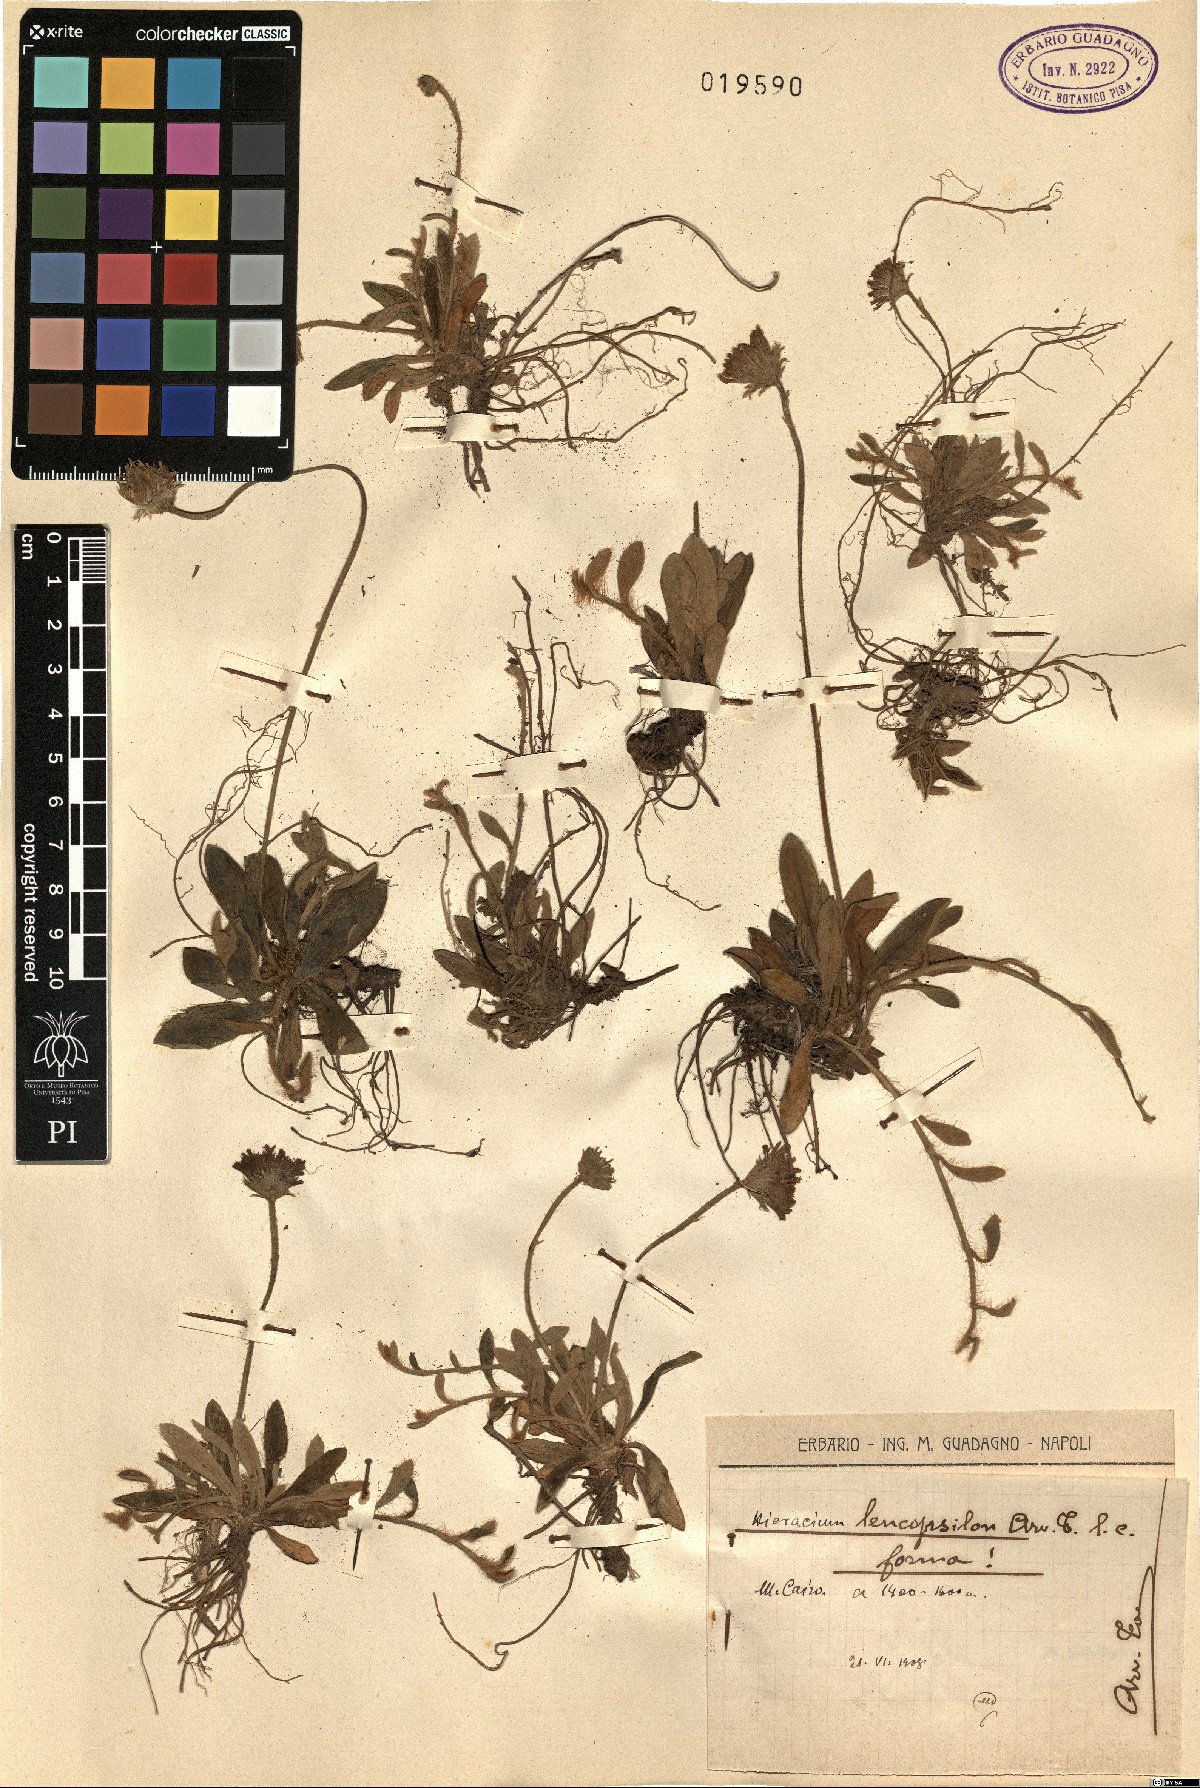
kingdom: Plantae
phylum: Tracheophyta
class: Magnoliopsida
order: Asterales
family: Asteraceae
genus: Pilosella
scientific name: Pilosella leucopsilon
